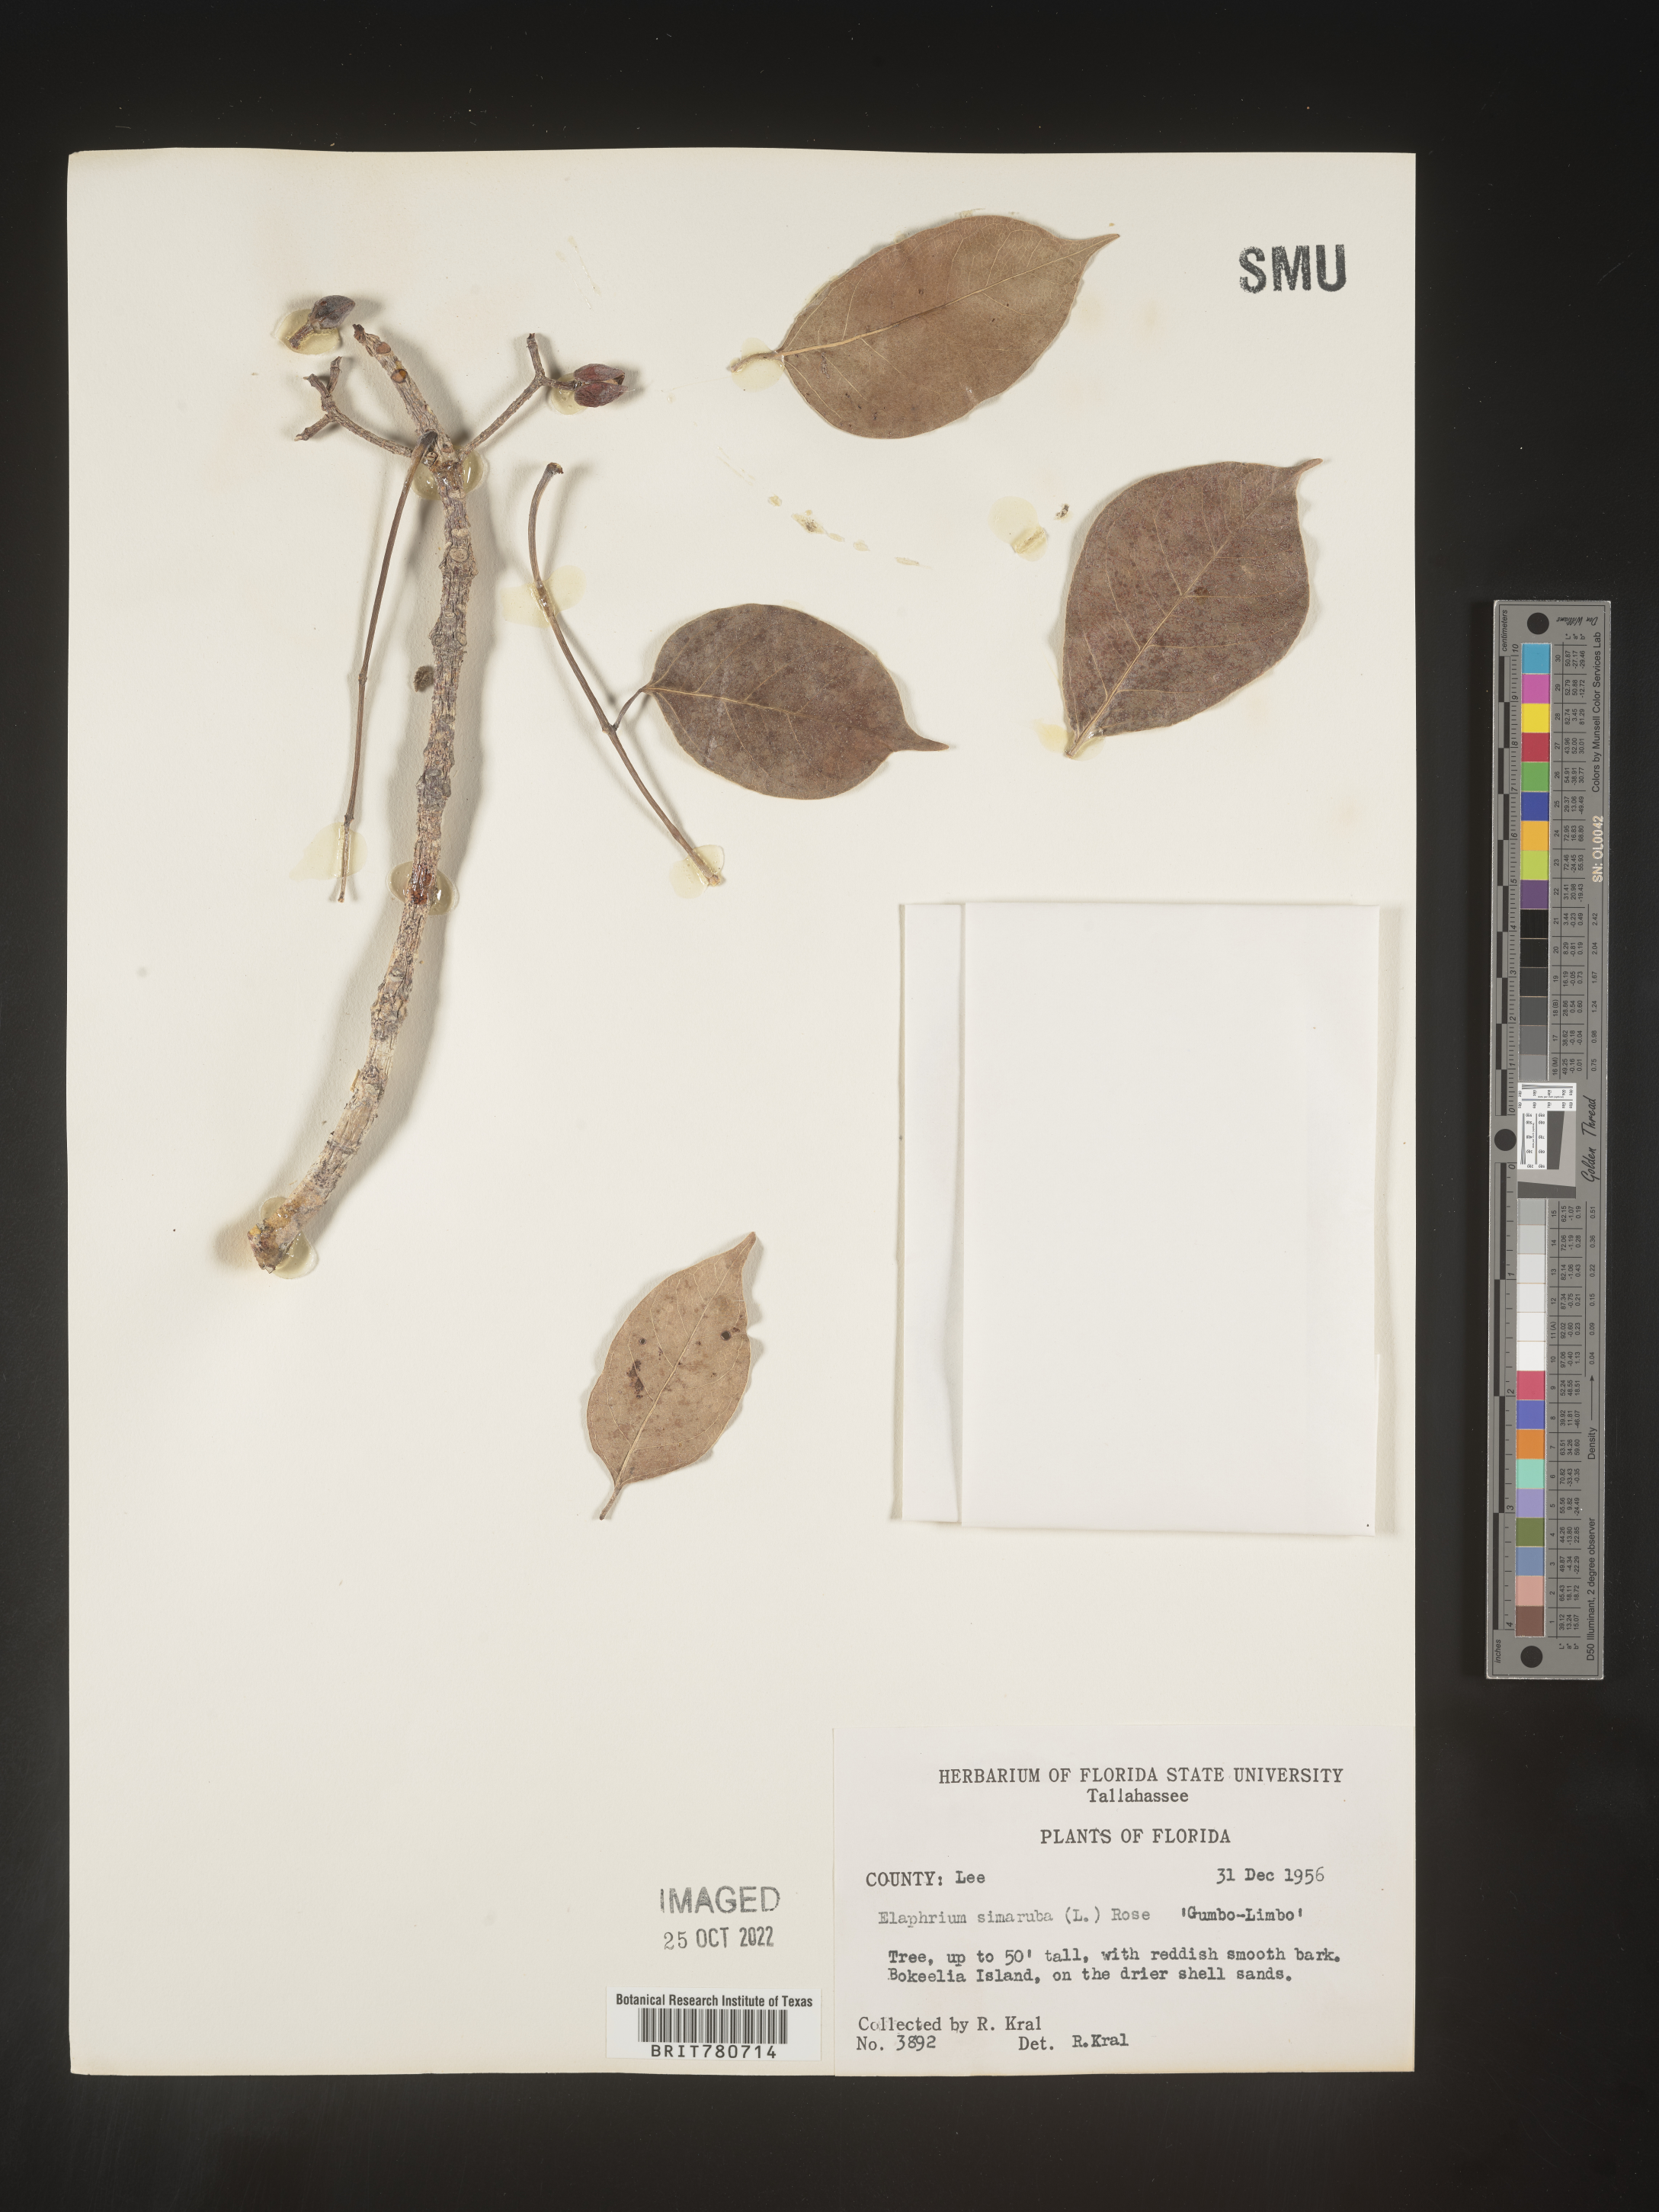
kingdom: Plantae
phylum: Tracheophyta
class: Magnoliopsida
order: Sapindales
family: Burseraceae
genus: Bursera
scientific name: Bursera
